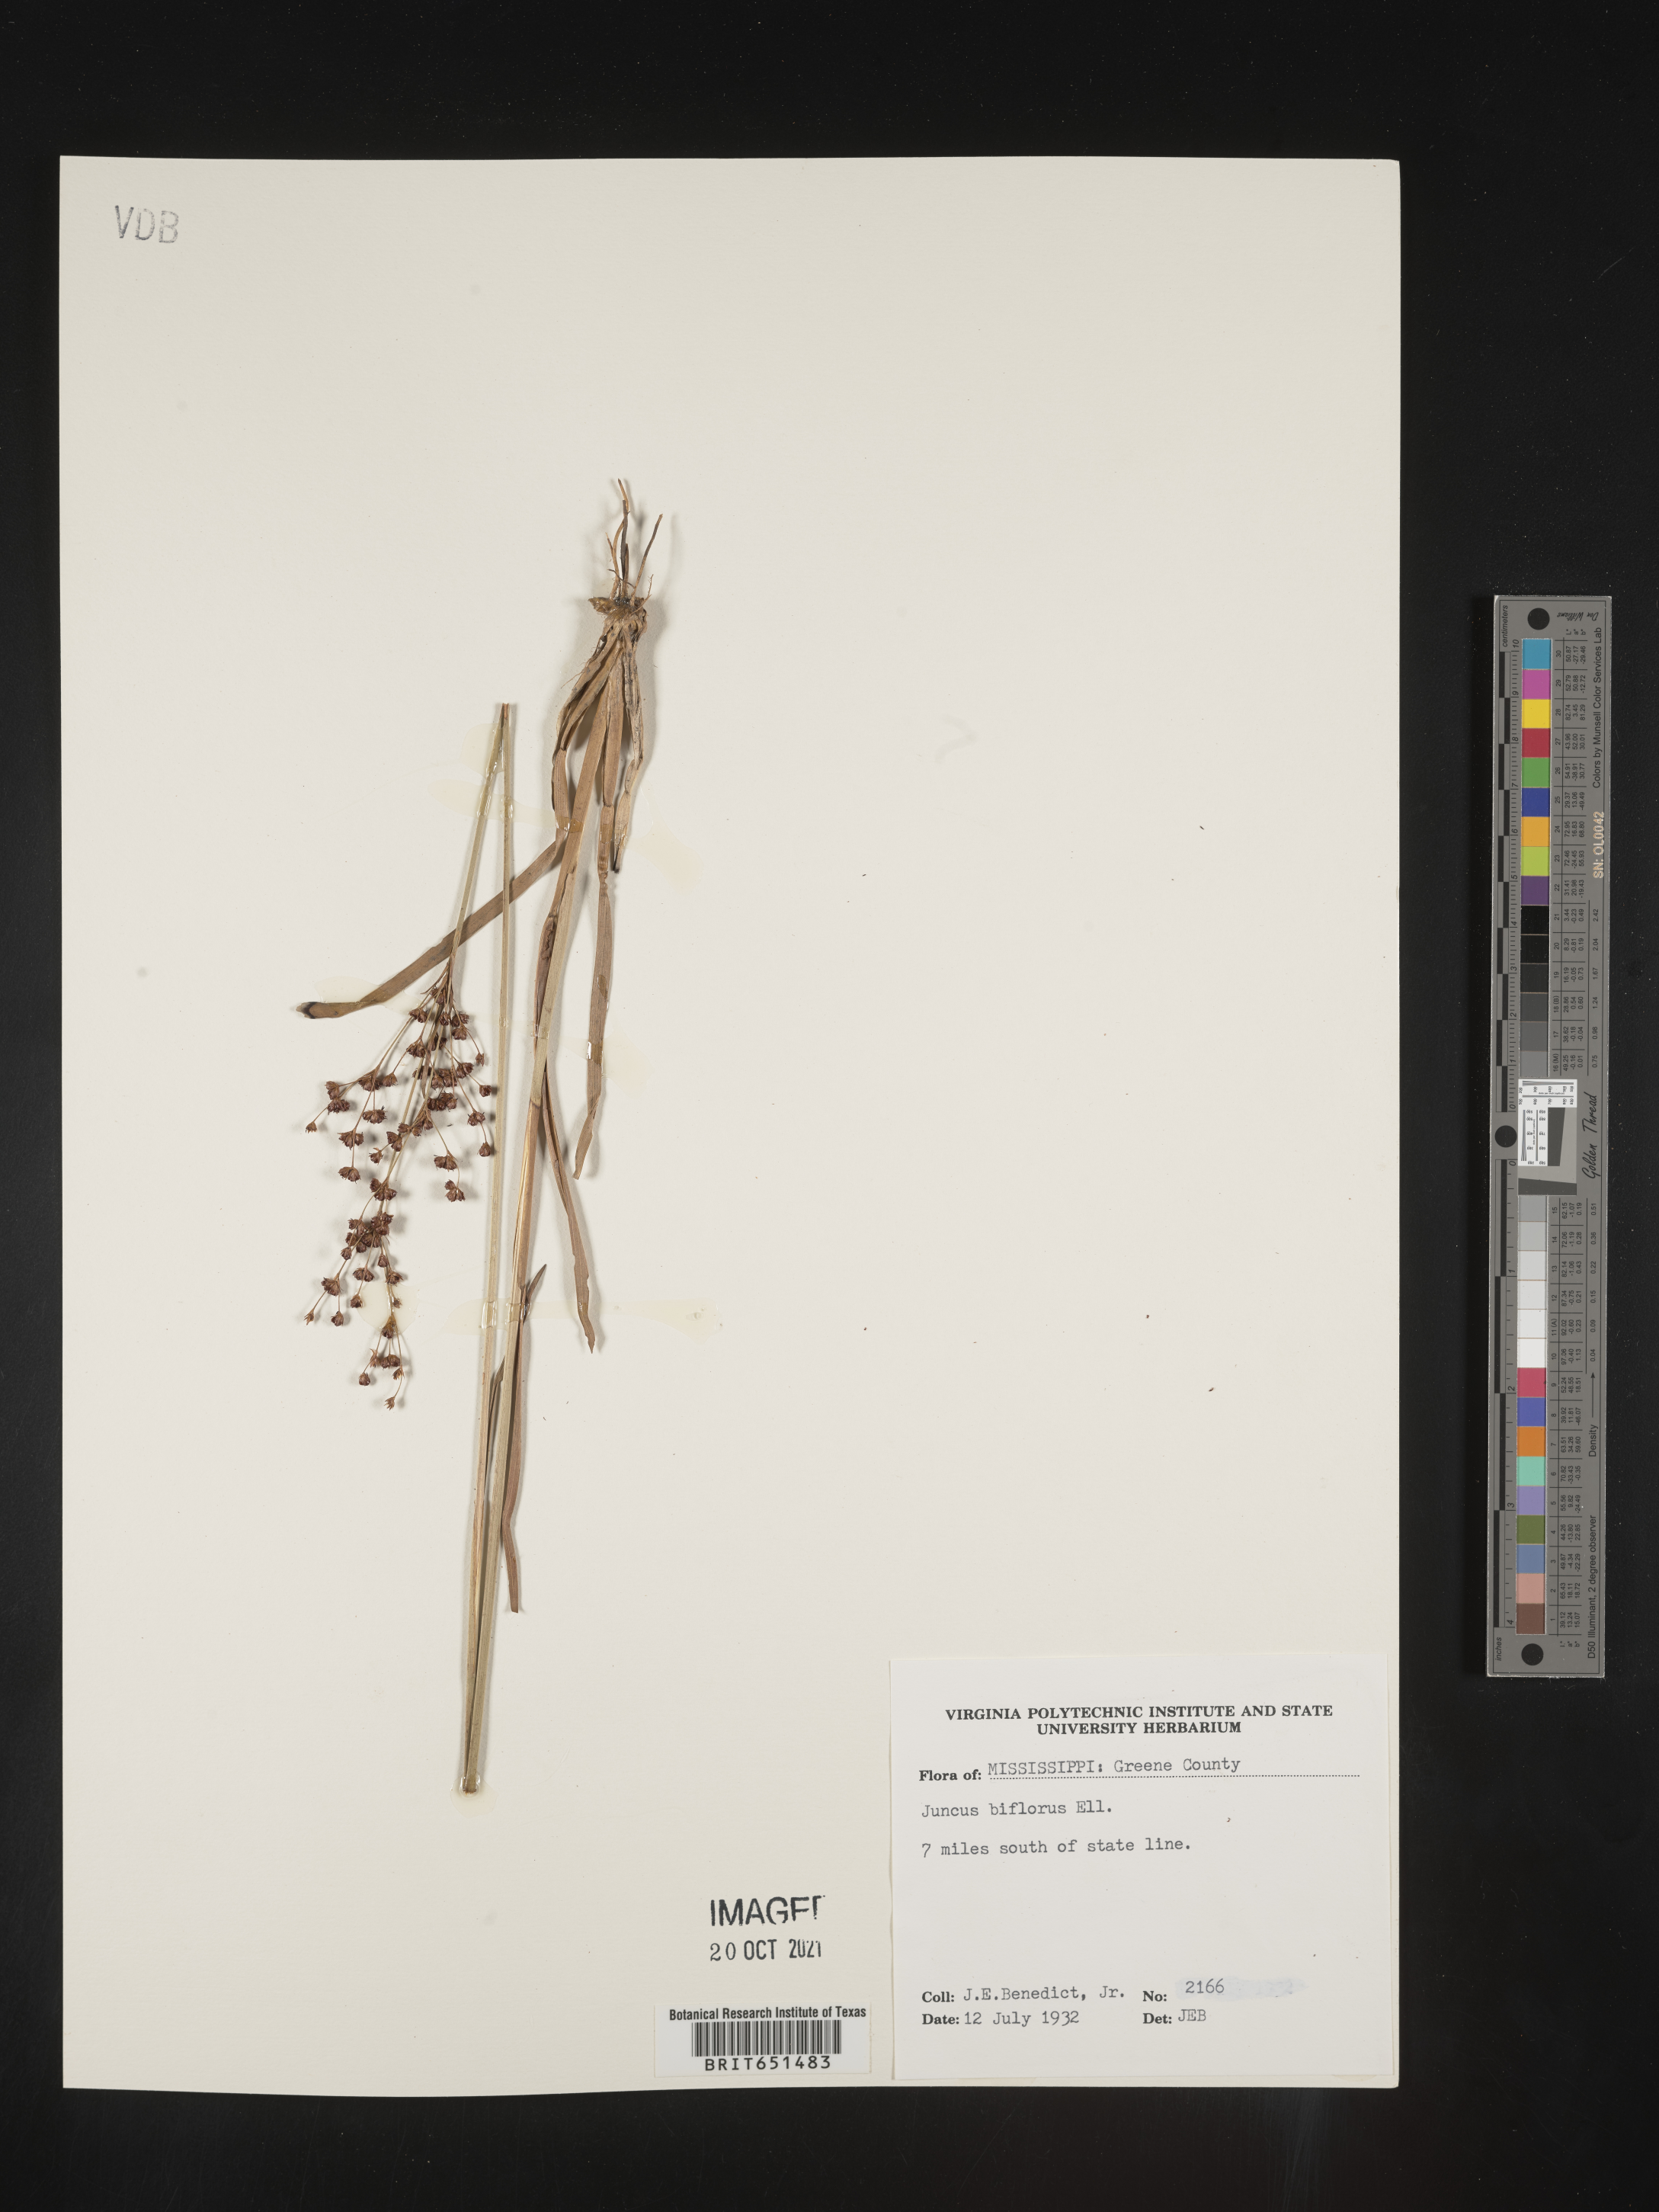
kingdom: Plantae
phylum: Tracheophyta
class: Liliopsida
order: Poales
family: Juncaceae
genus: Juncus
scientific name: Juncus biflorus
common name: Two-flowered rush
